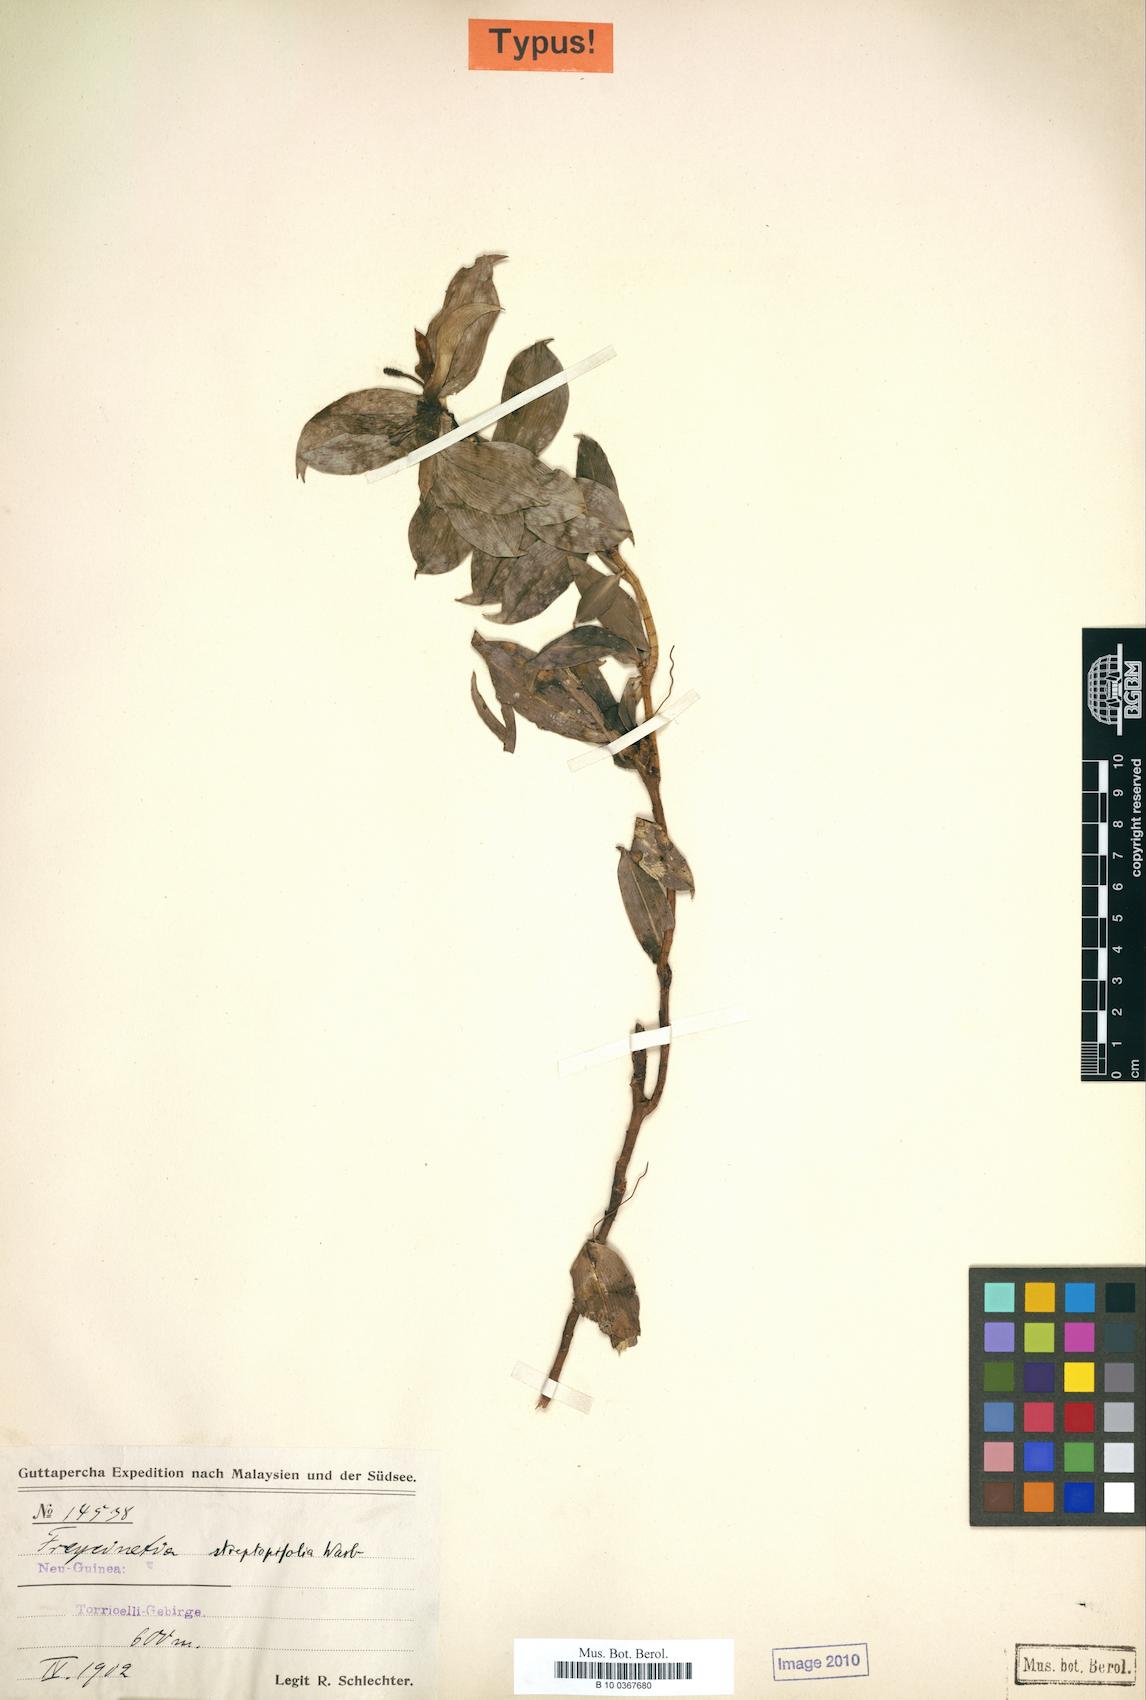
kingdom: Plantae
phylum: Tracheophyta
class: Liliopsida
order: Pandanales
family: Pandanaceae
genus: Freycinetia
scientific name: Freycinetia beccarii
